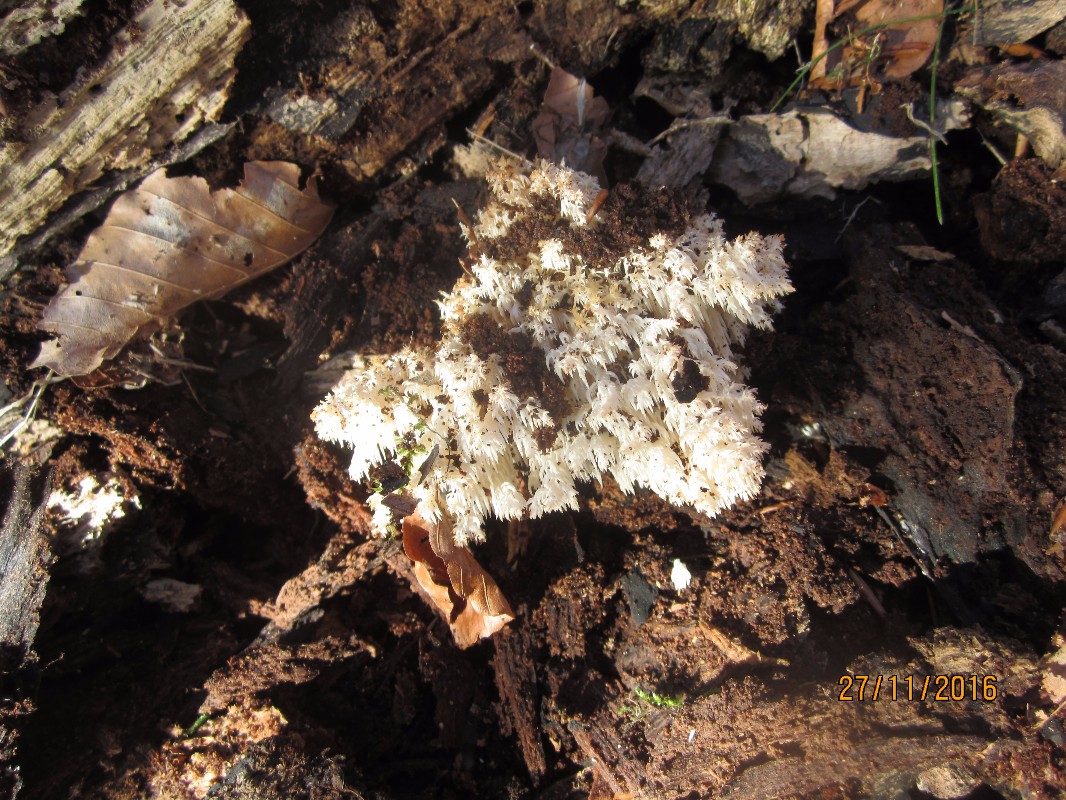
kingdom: Fungi
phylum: Basidiomycota
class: Agaricomycetes
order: Russulales
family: Hericiaceae
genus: Hericium
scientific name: Hericium coralloides
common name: koralpigsvamp
